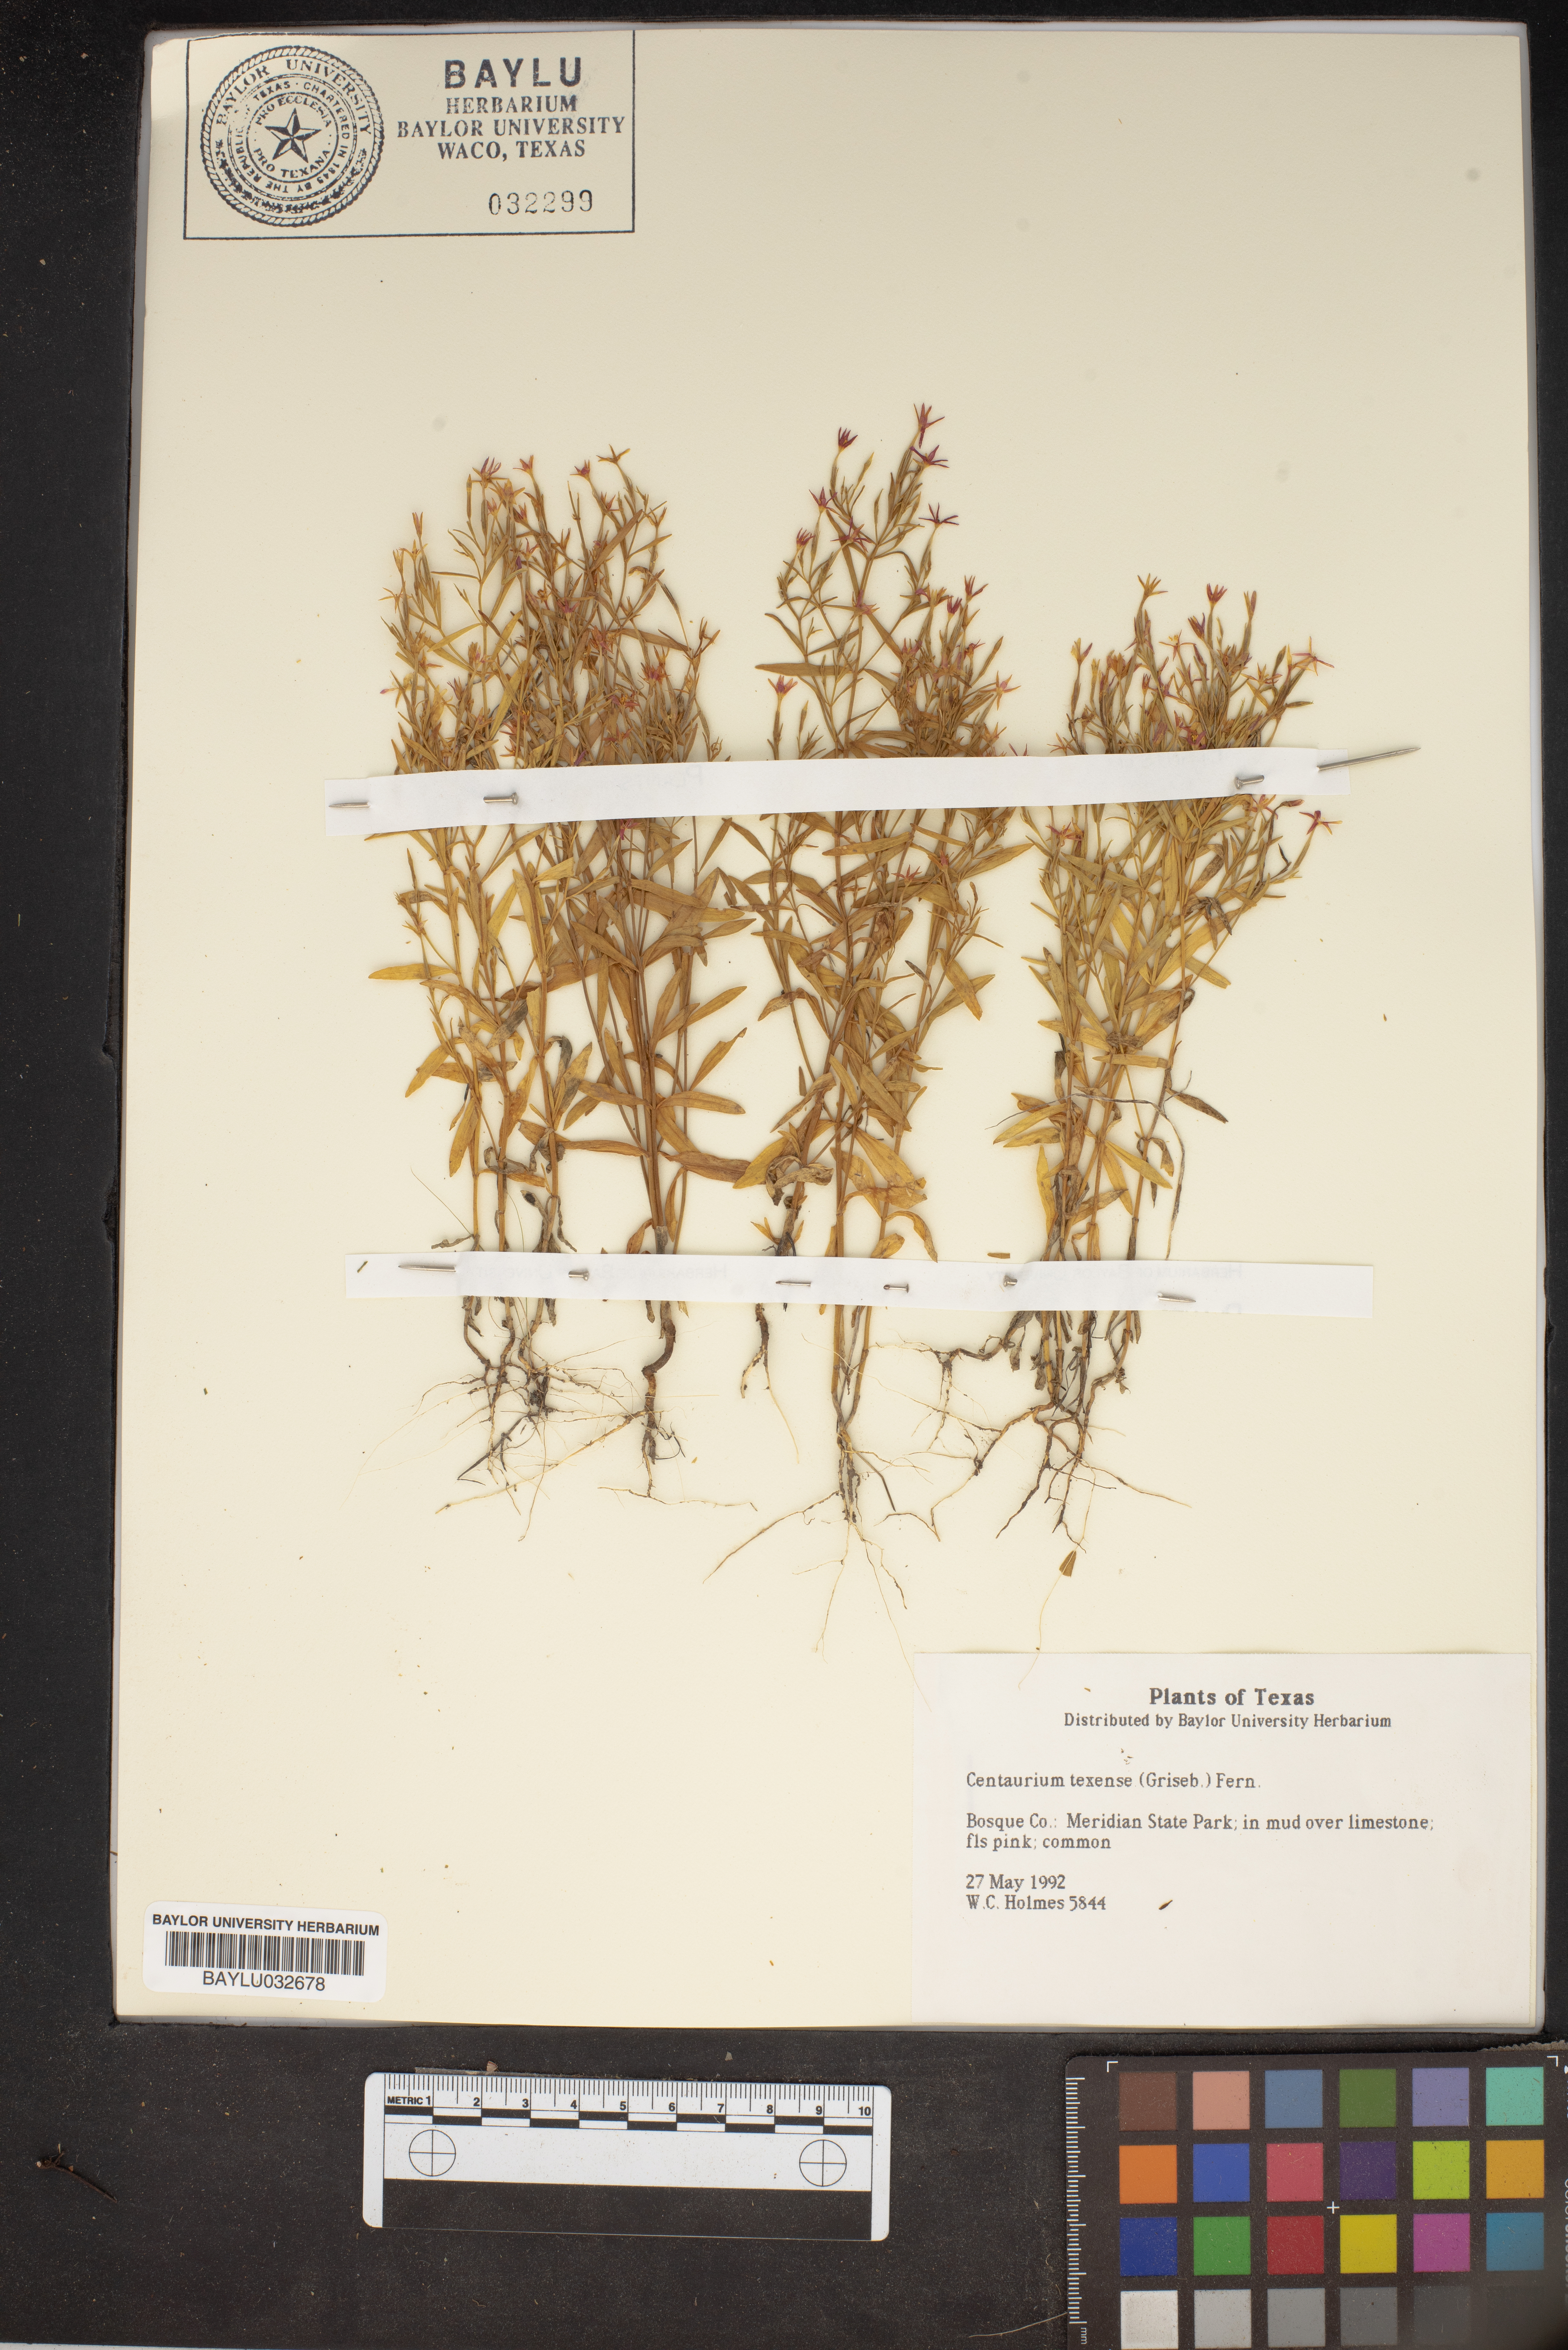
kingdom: Plantae
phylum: Tracheophyta
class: Magnoliopsida
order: Gentianales
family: Gentianaceae
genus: Zeltnera
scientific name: Zeltnera texensis
